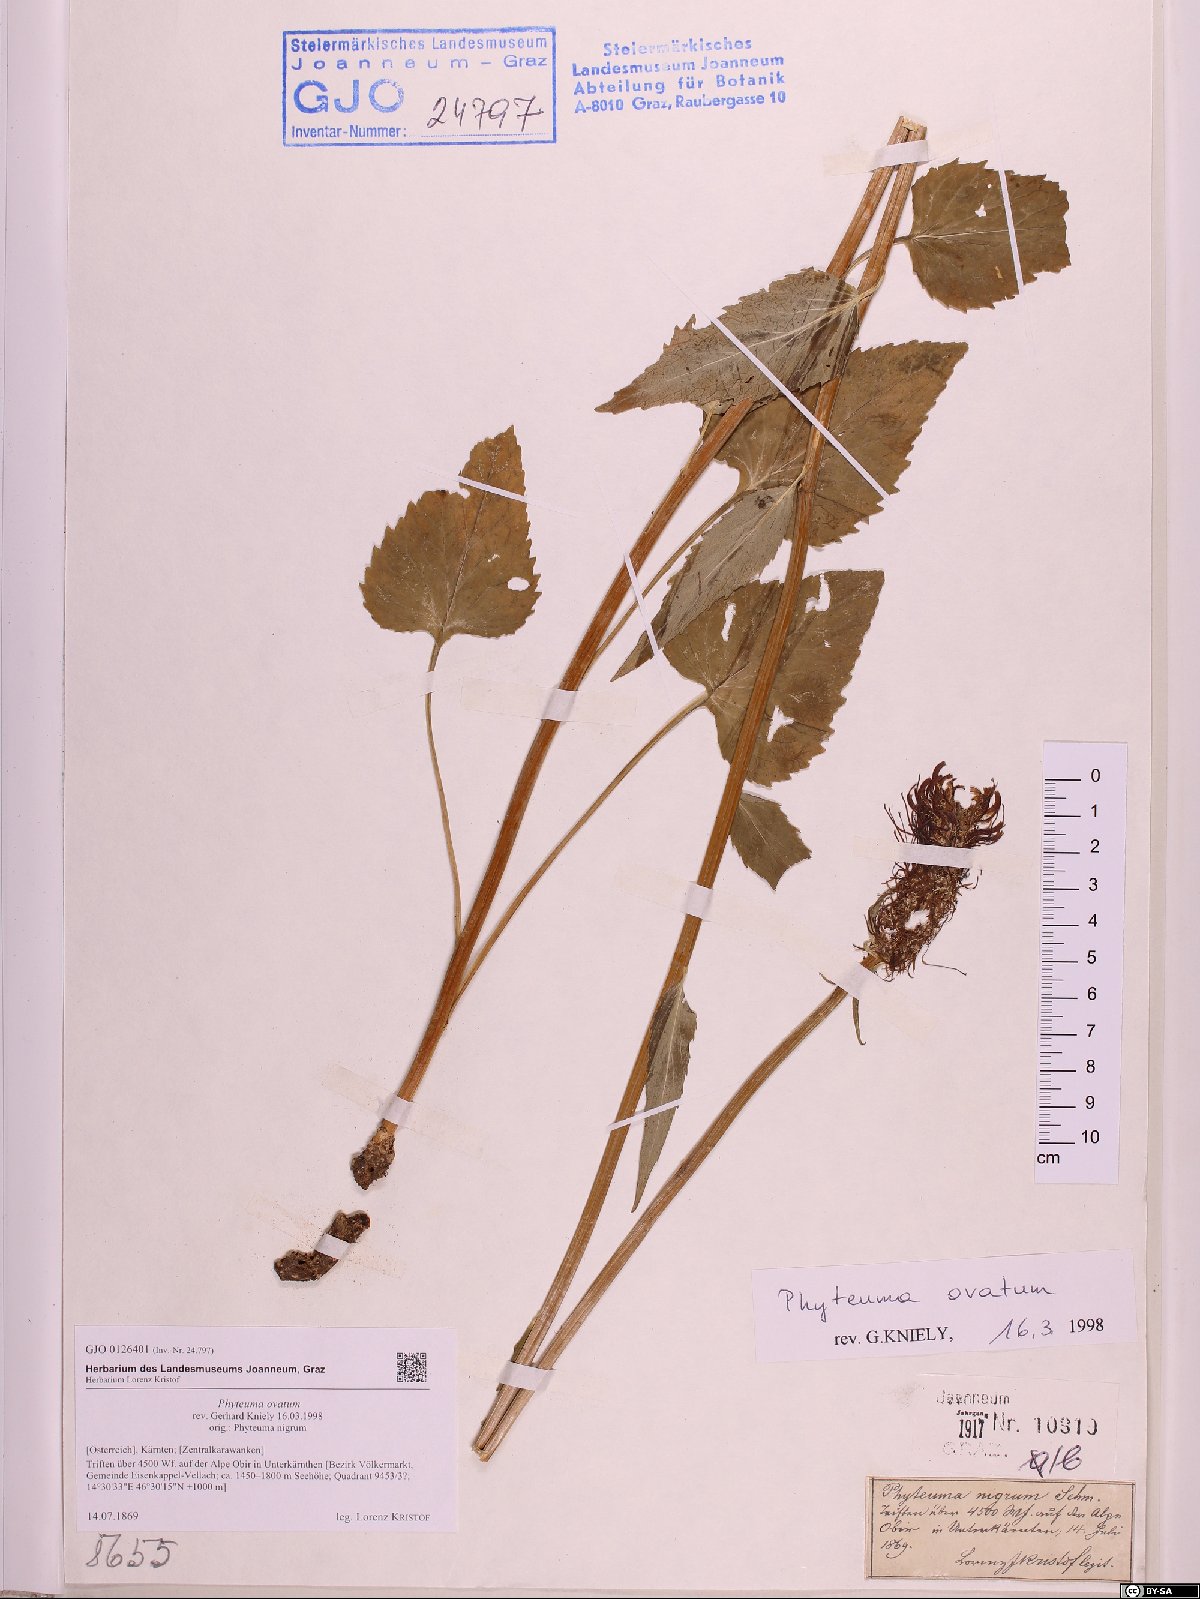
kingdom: Plantae
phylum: Tracheophyta
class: Magnoliopsida
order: Asterales
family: Campanulaceae
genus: Phyteuma
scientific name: Phyteuma ovatum
